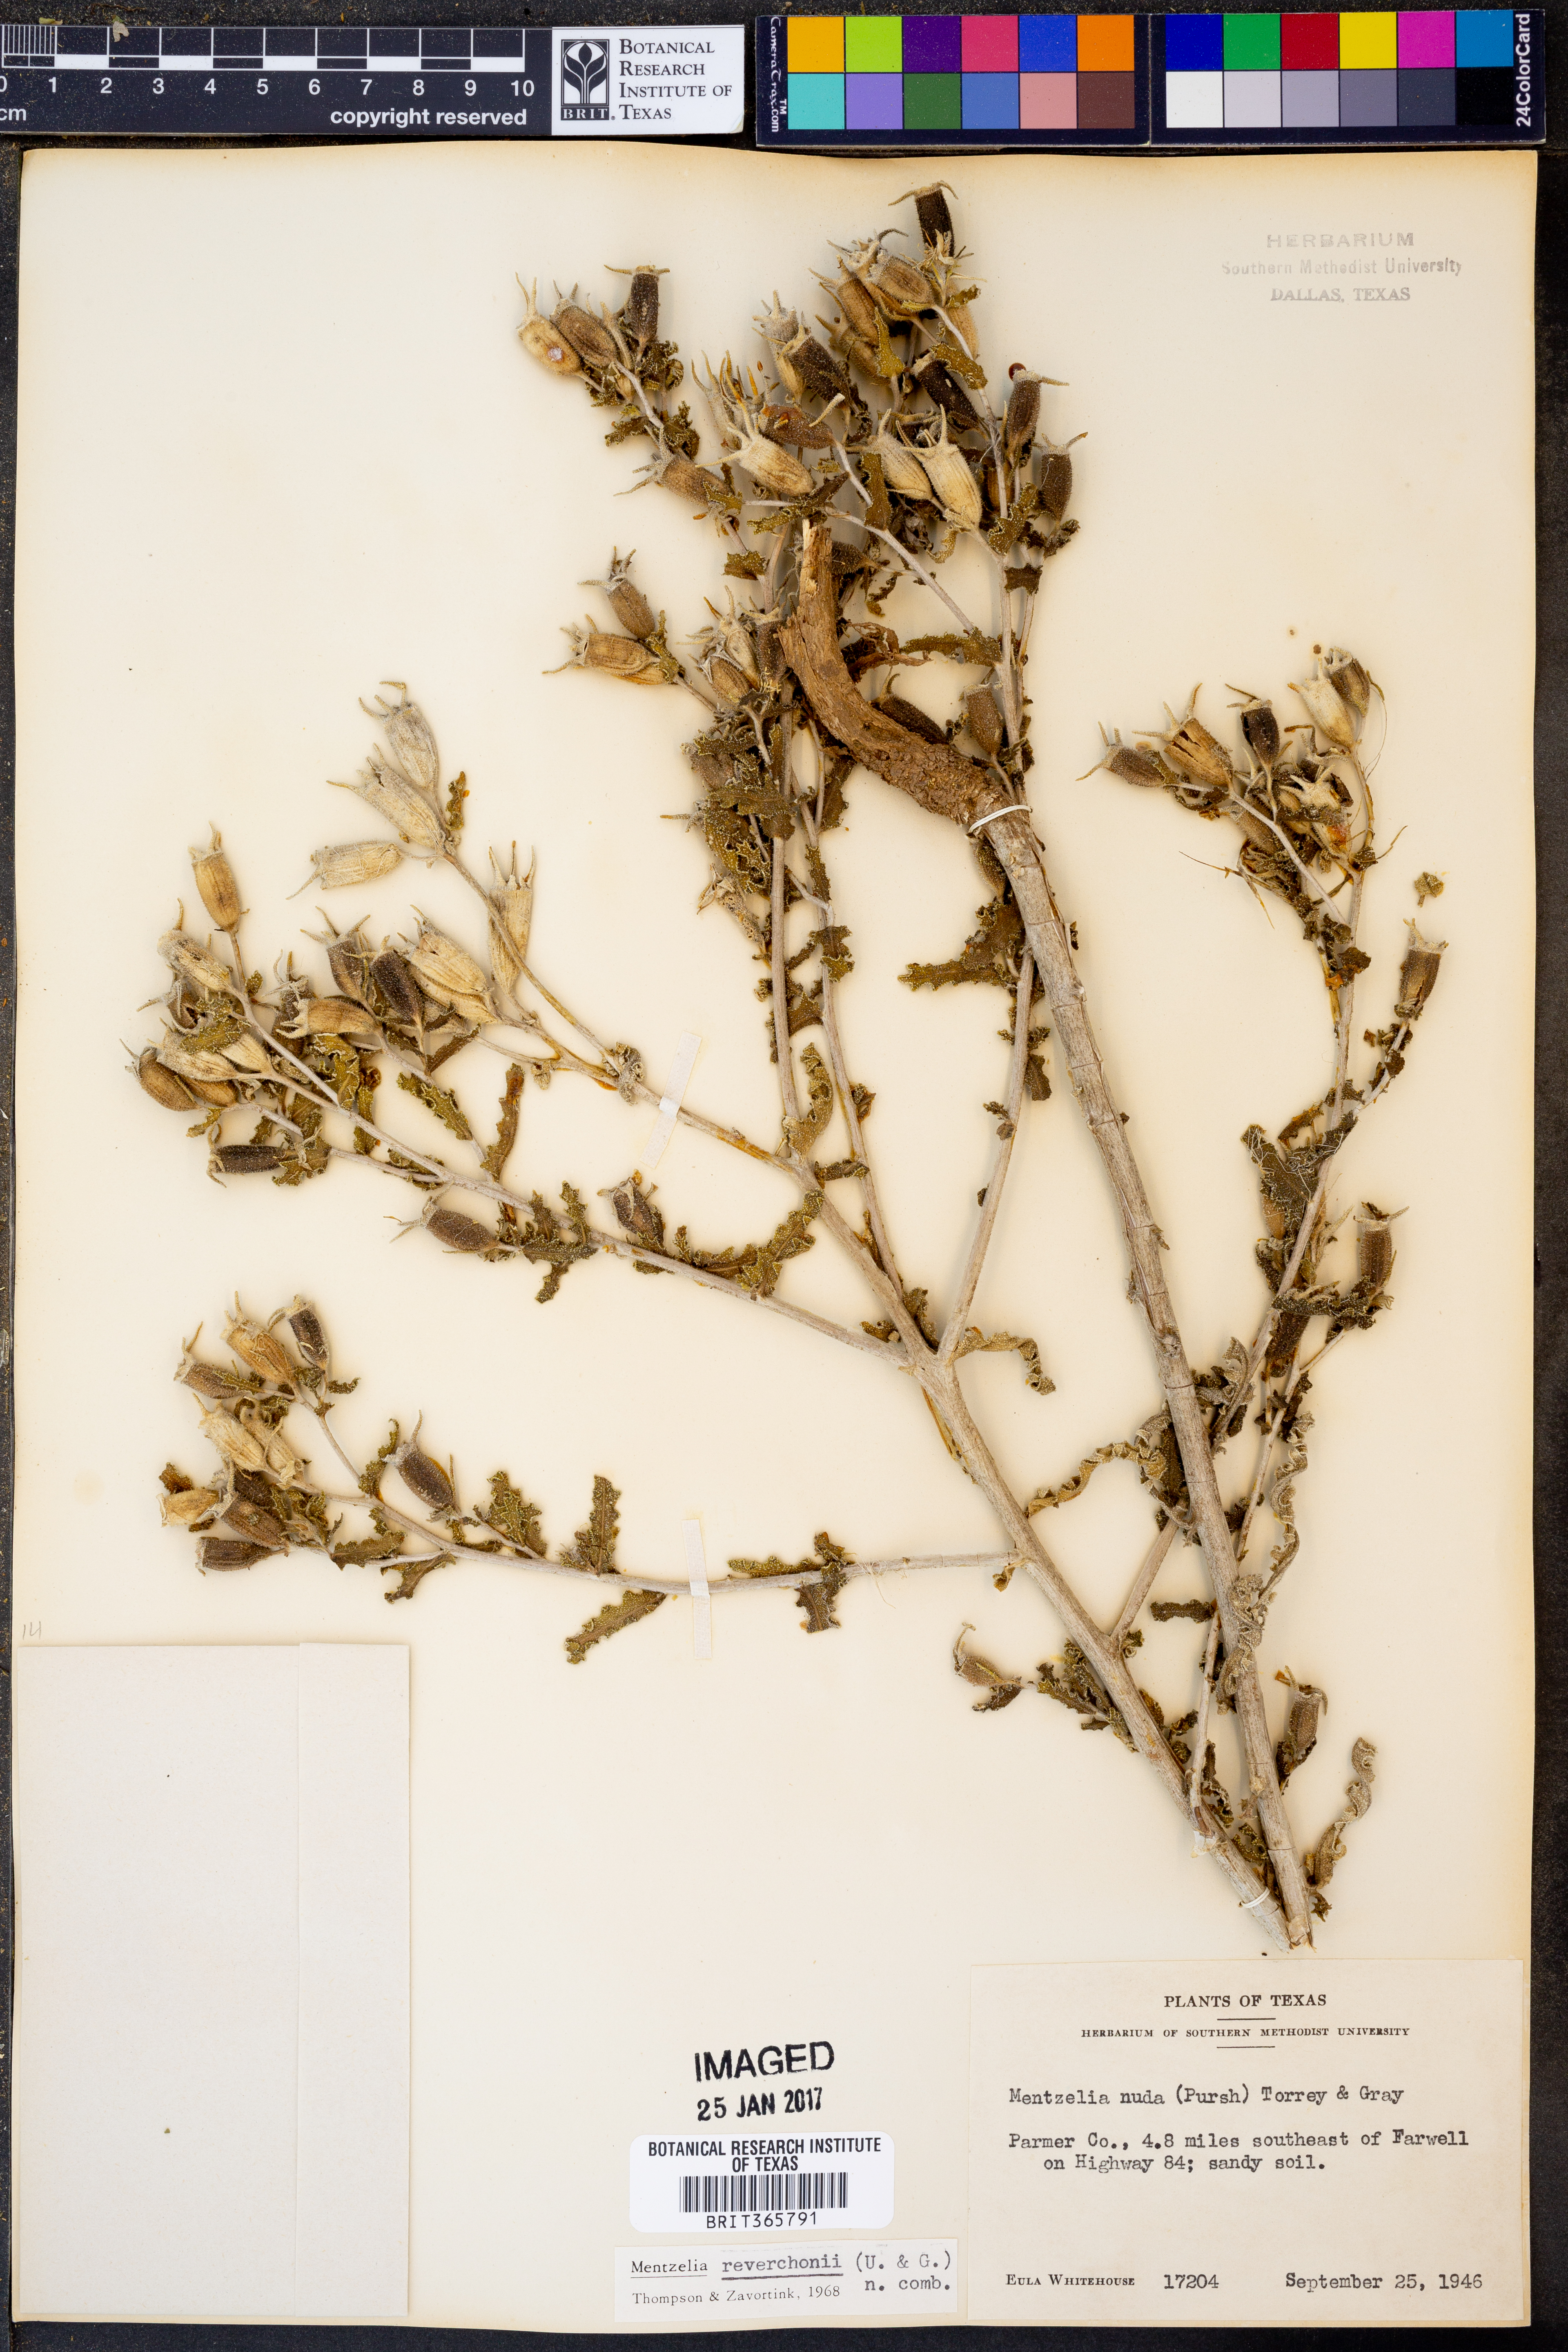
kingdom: Plantae
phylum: Tracheophyta
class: Magnoliopsida
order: Cornales
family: Loasaceae
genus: Mentzelia
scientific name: Mentzelia reverchonii
